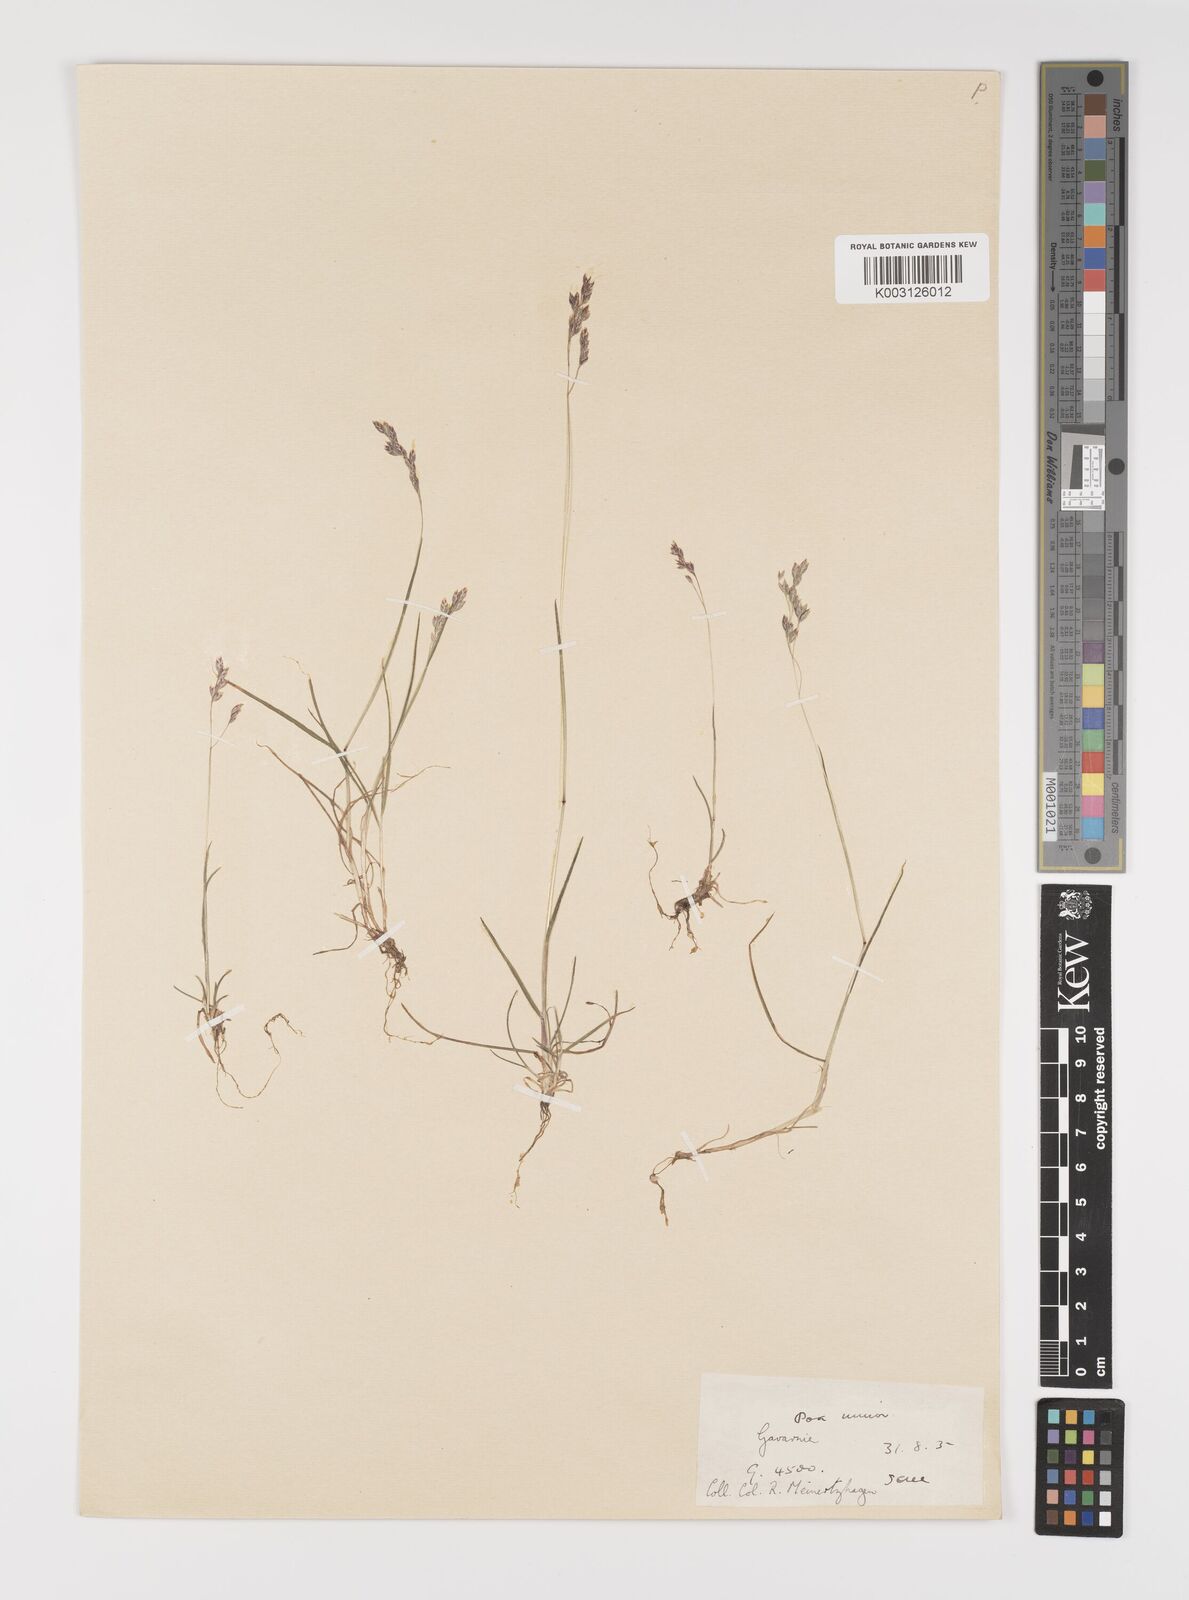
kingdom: Plantae
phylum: Tracheophyta
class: Liliopsida
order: Poales
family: Poaceae
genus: Poa
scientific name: Poa minor
